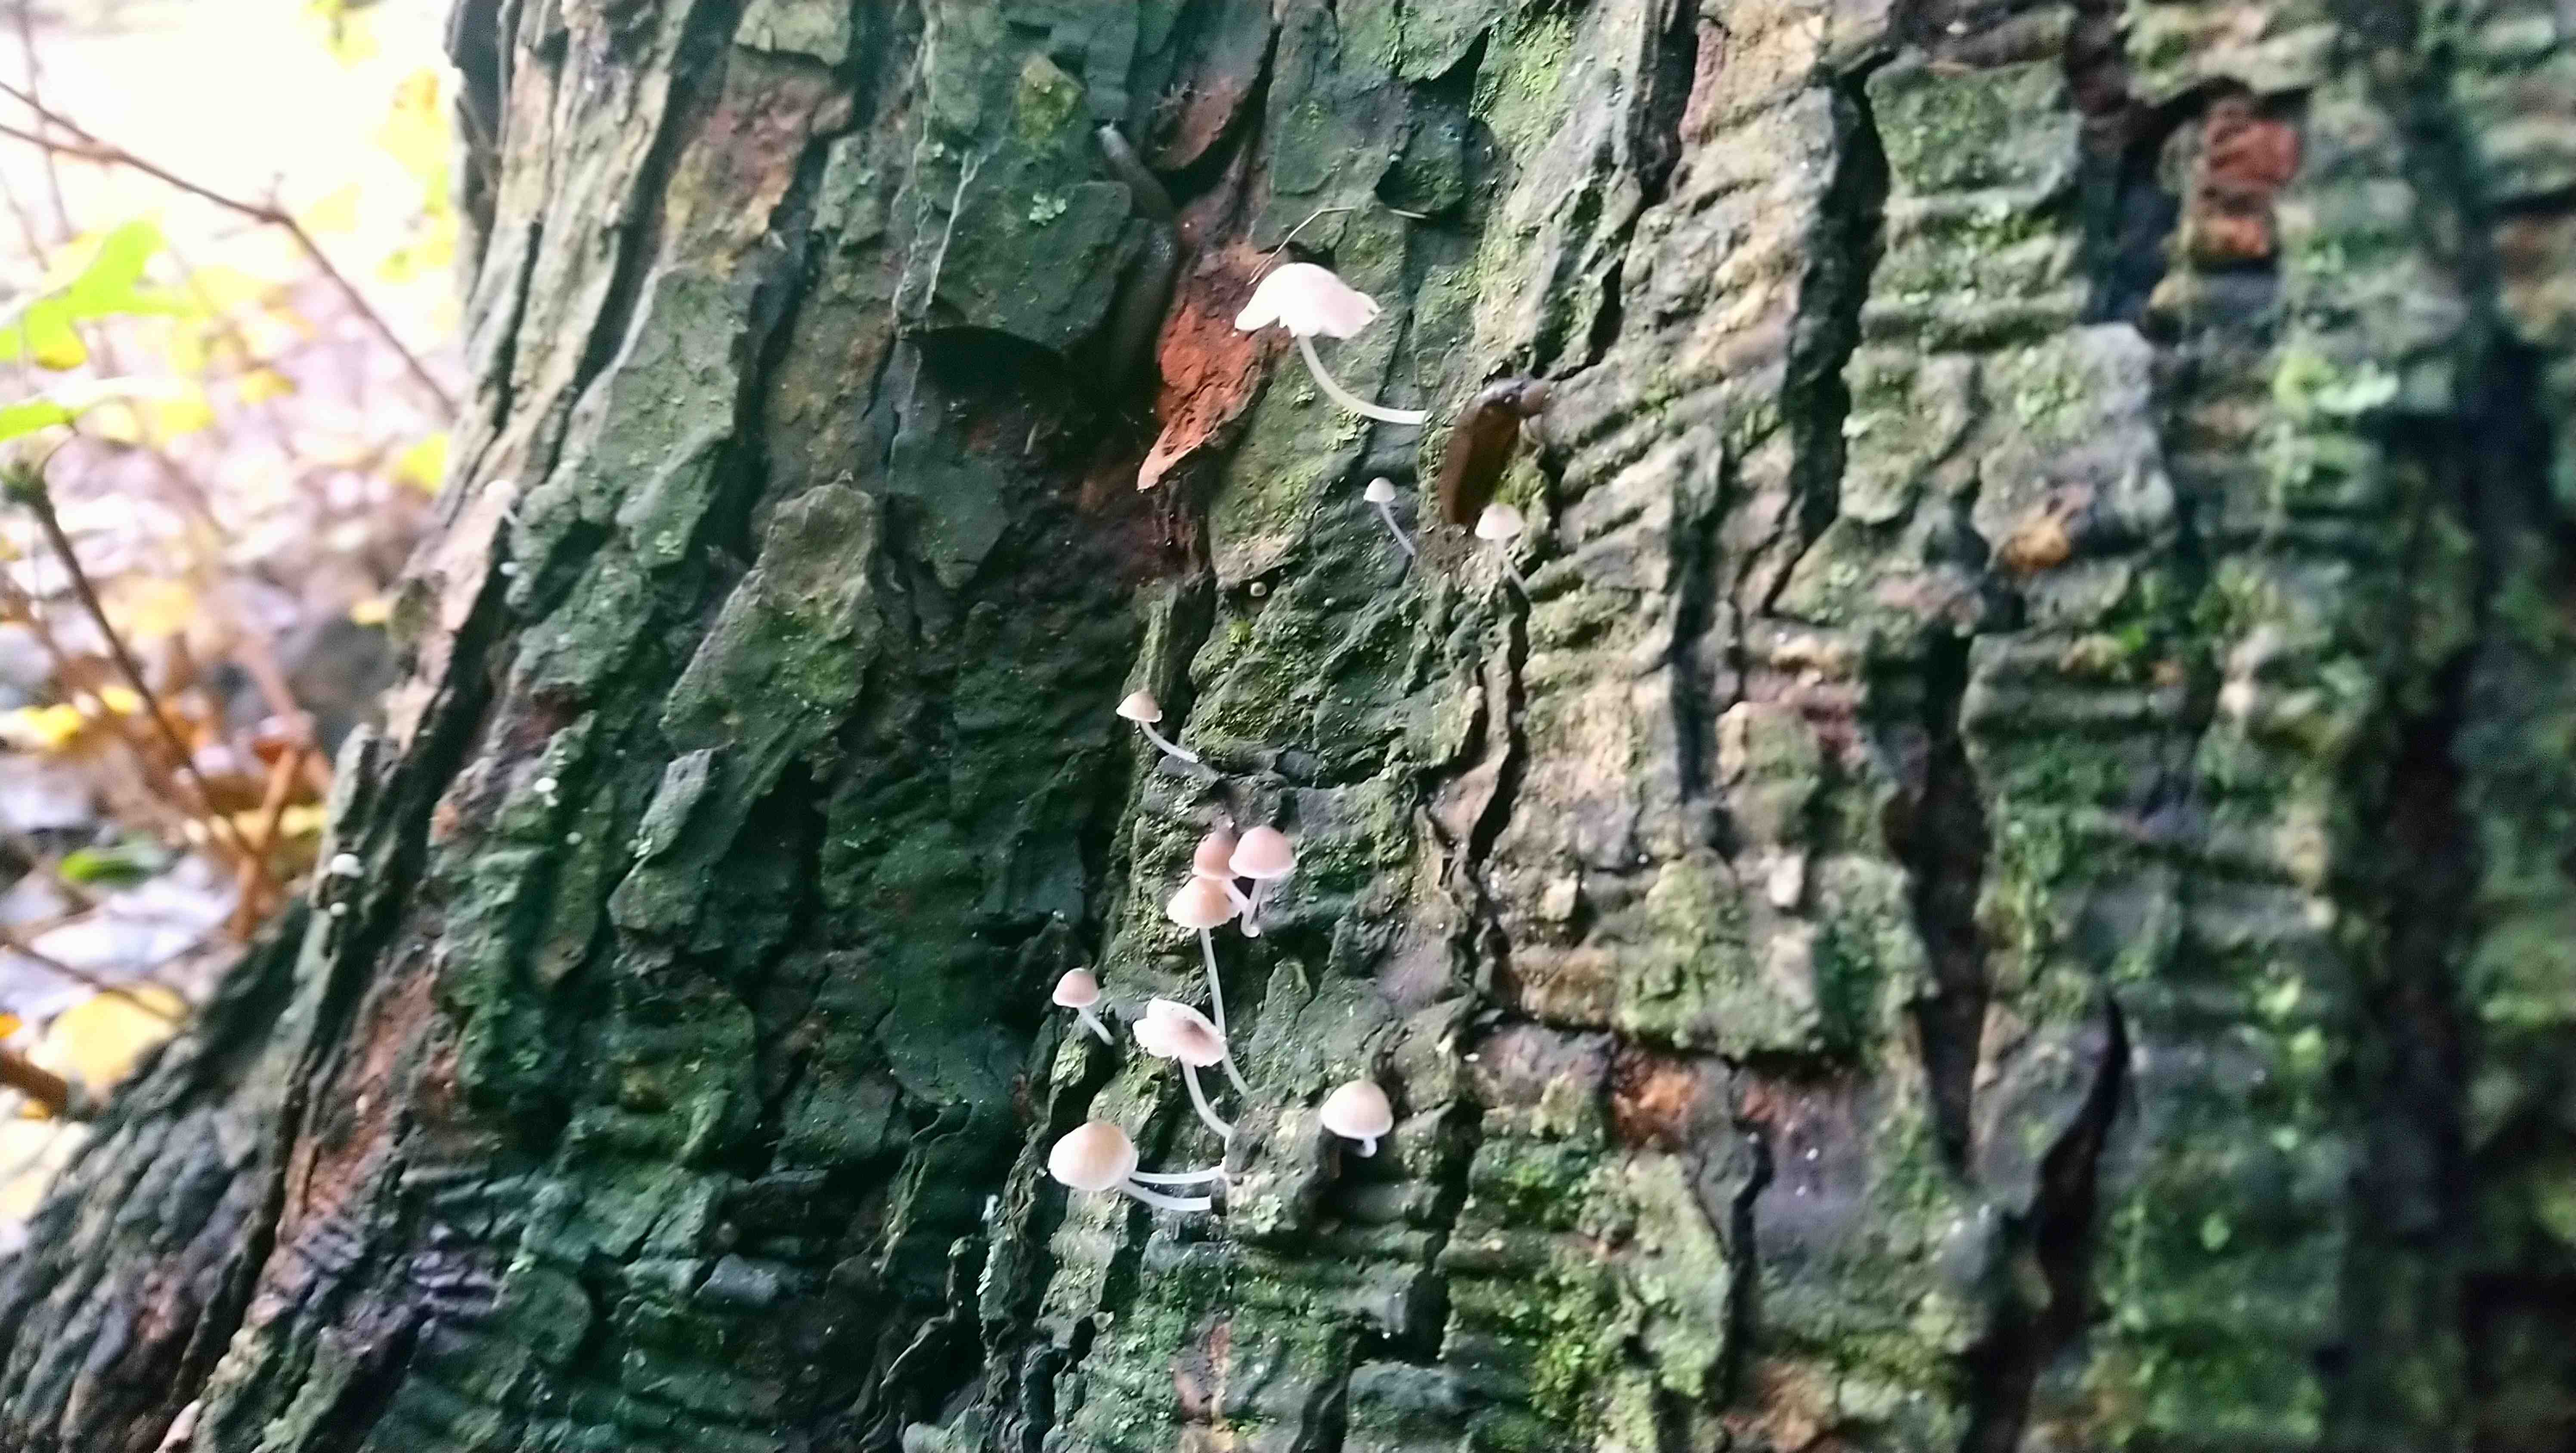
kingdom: Fungi
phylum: Basidiomycota
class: Agaricomycetes
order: Agaricales
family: Porotheleaceae
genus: Phloeomana
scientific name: Phloeomana
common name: huesvamp
